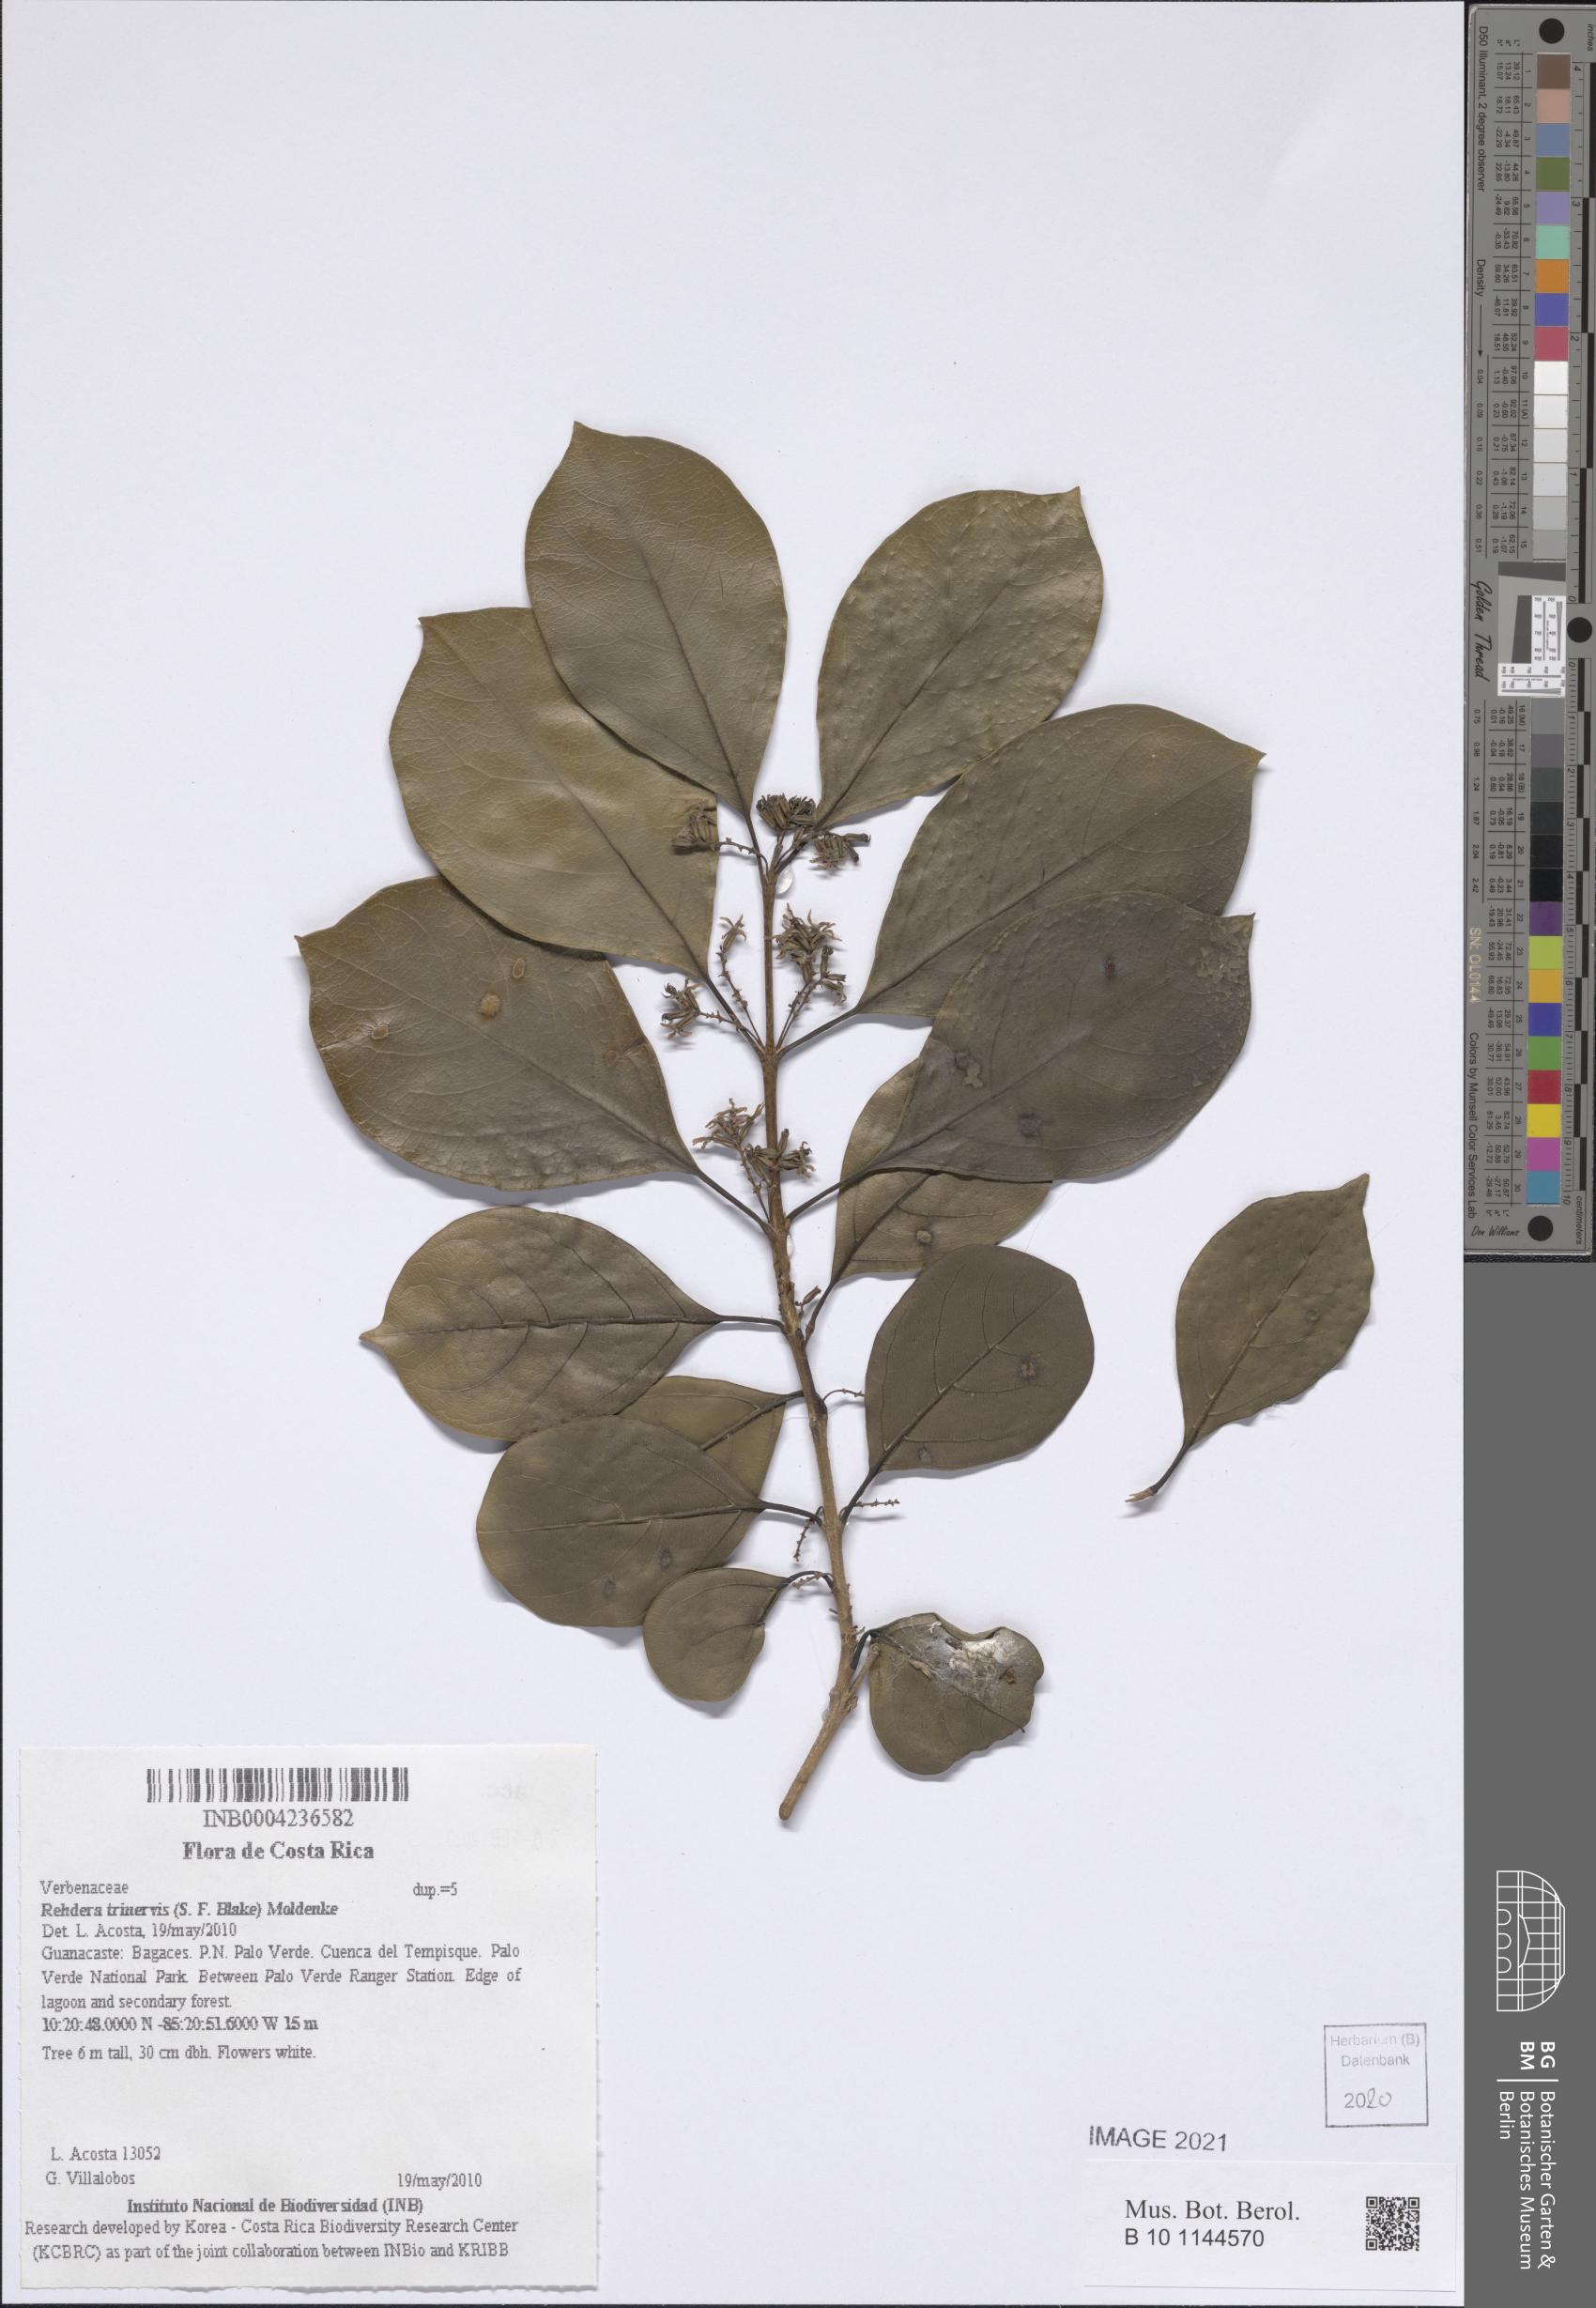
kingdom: Plantae
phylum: Tracheophyta
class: Magnoliopsida
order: Lamiales
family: Verbenaceae
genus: Rehdera
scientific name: Rehdera trinervis
